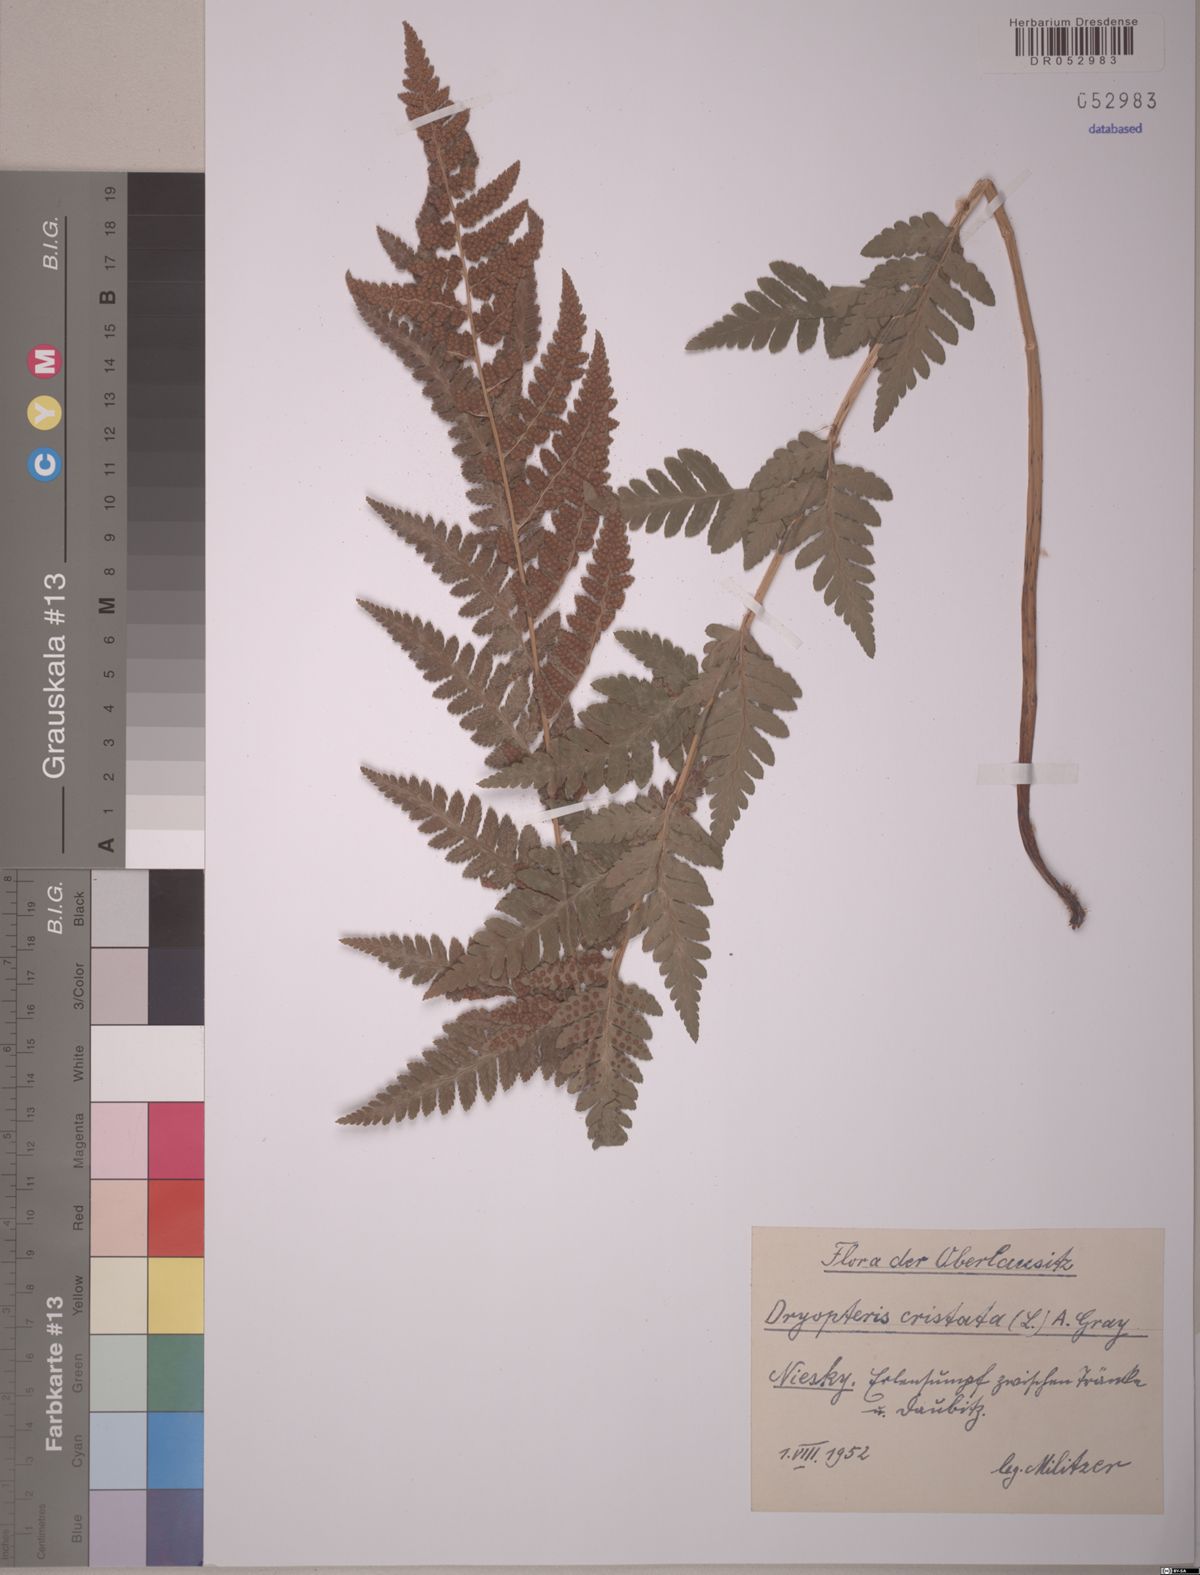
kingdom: Plantae
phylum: Tracheophyta
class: Polypodiopsida
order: Polypodiales
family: Dryopteridaceae
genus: Dryopteris
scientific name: Dryopteris cristata
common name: Crested wood fern
